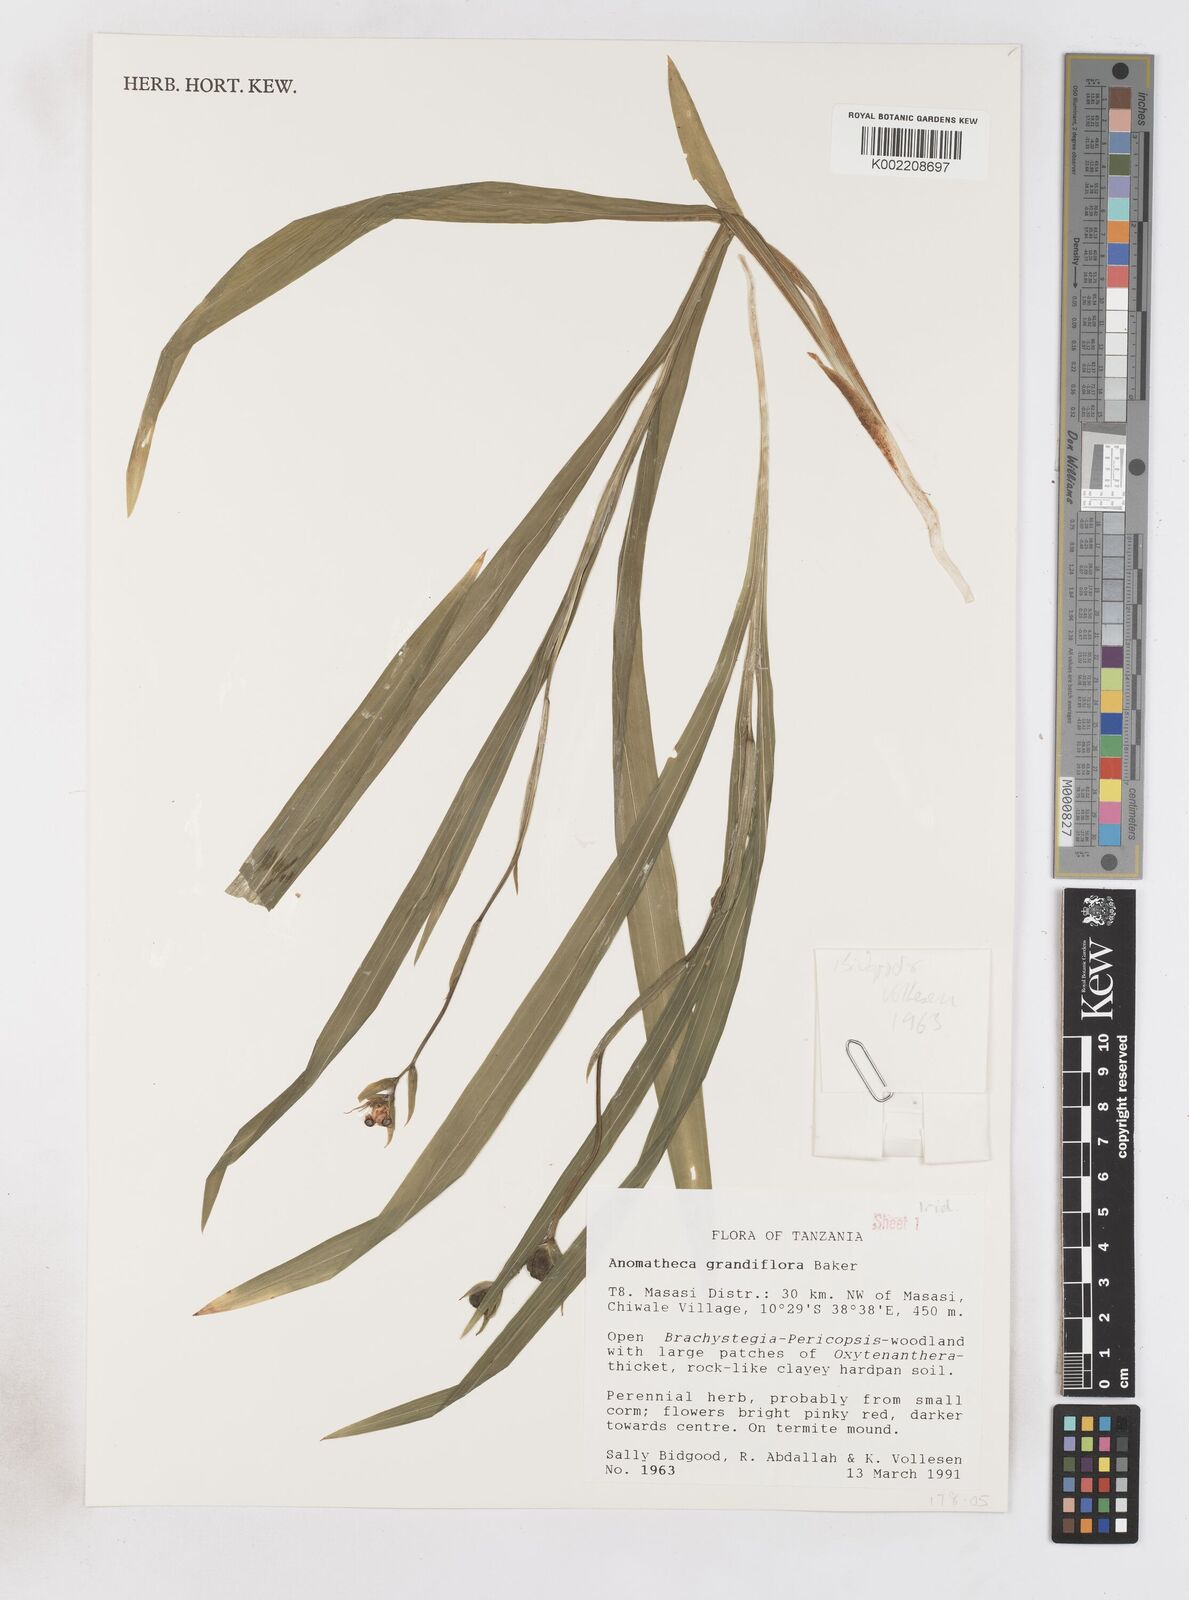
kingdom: Plantae
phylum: Tracheophyta
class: Liliopsida
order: Asparagales
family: Iridaceae
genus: Freesia
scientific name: Freesia grandiflora
